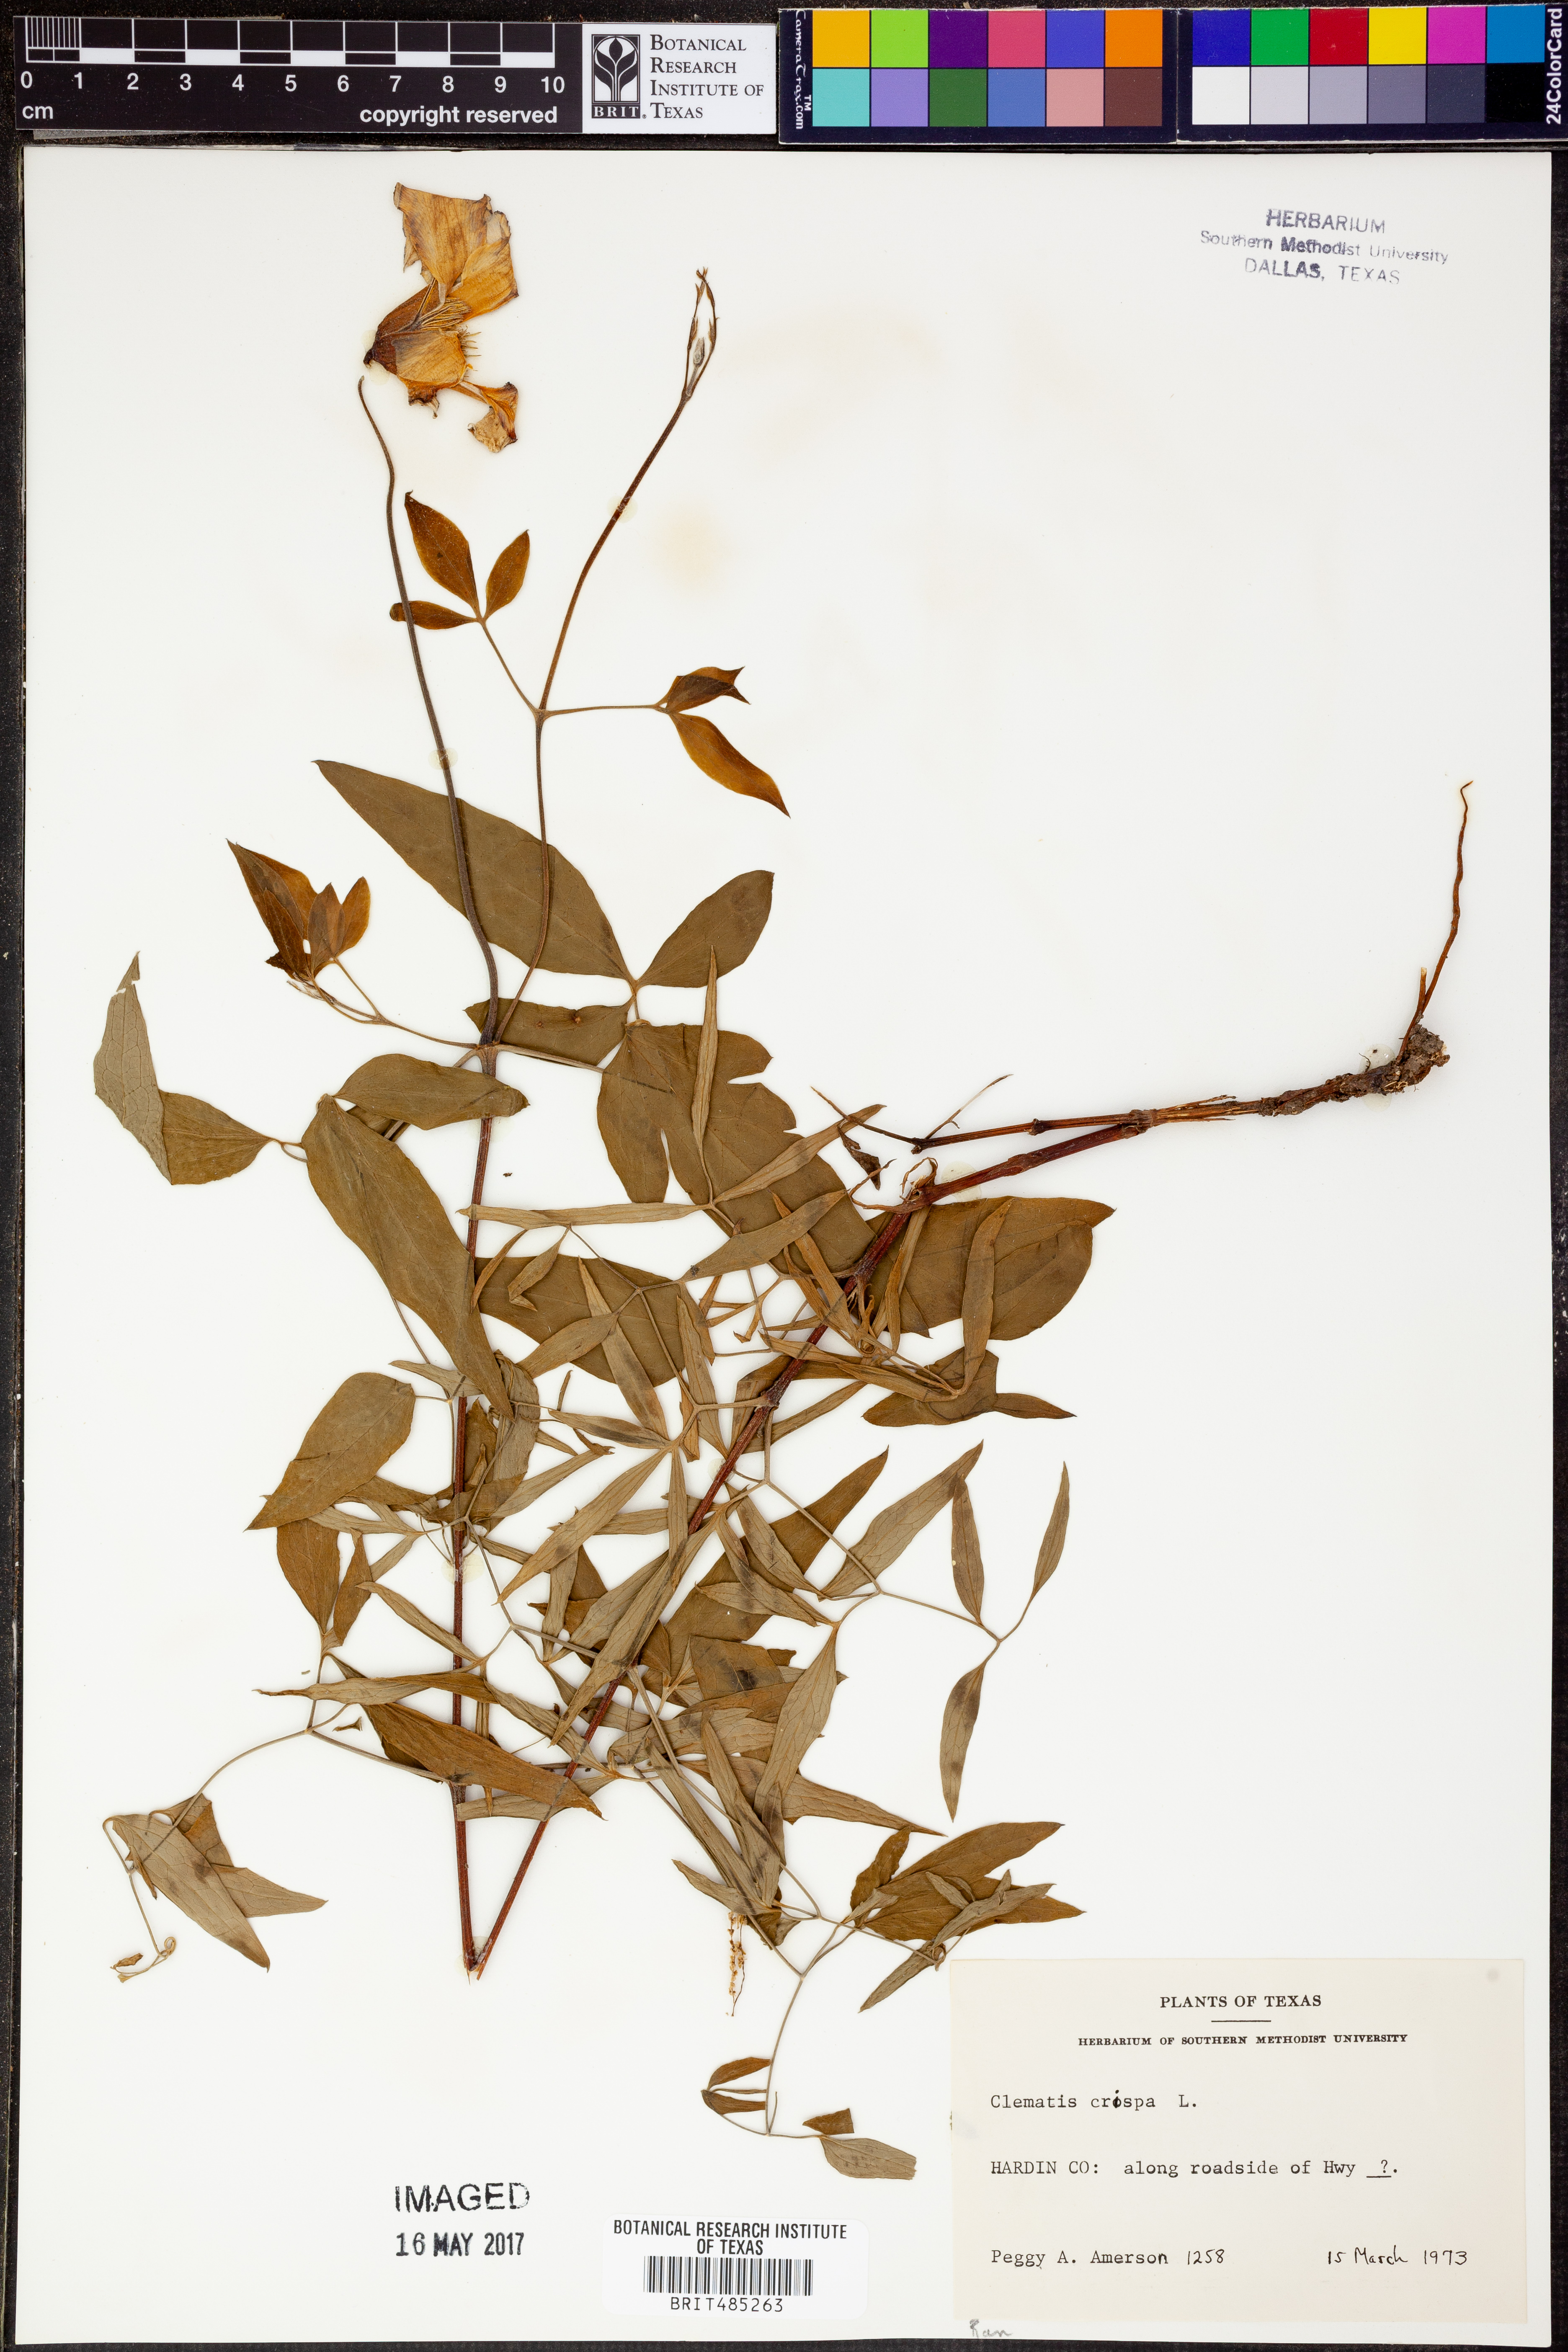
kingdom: Plantae
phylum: Tracheophyta
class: Magnoliopsida
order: Ranunculales
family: Ranunculaceae
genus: Clematis
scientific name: Clematis crispa
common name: Curly clematis
